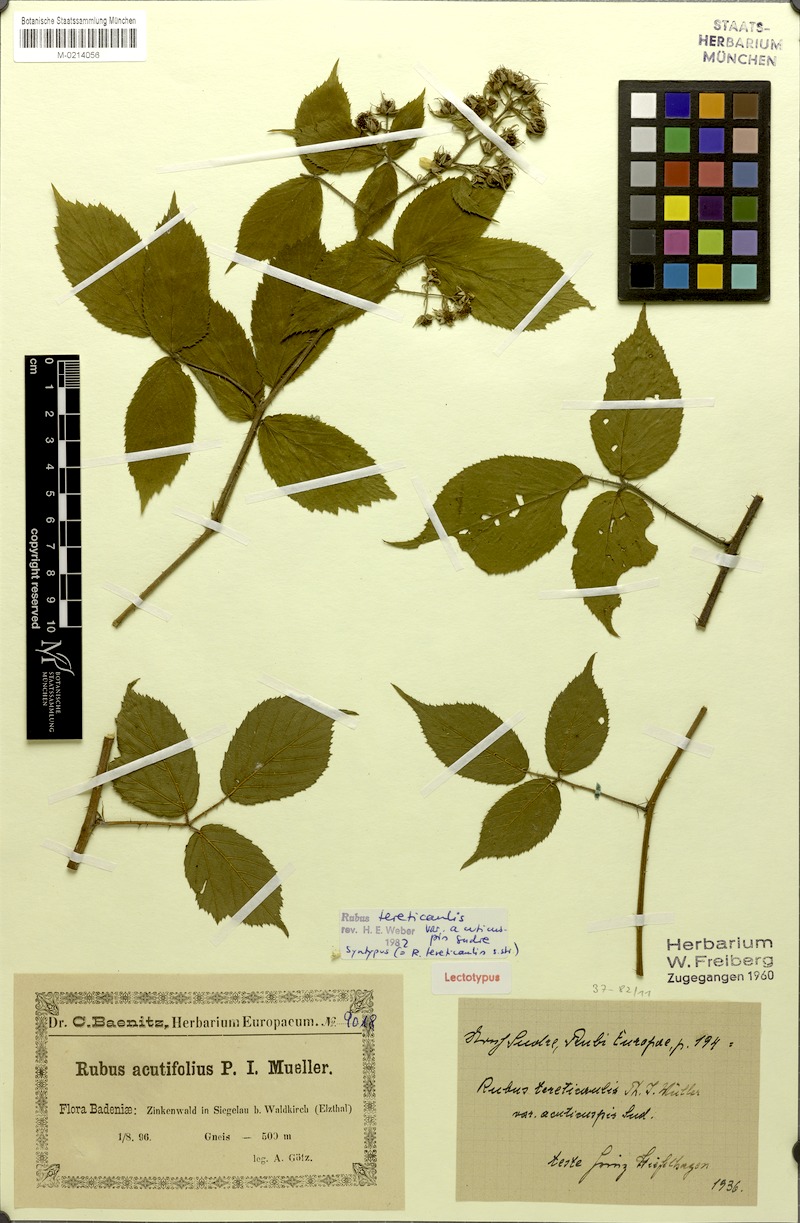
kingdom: Plantae
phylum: Tracheophyta
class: Magnoliopsida
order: Rosales
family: Rosaceae
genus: Rubus
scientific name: Rubus tereticaulis
